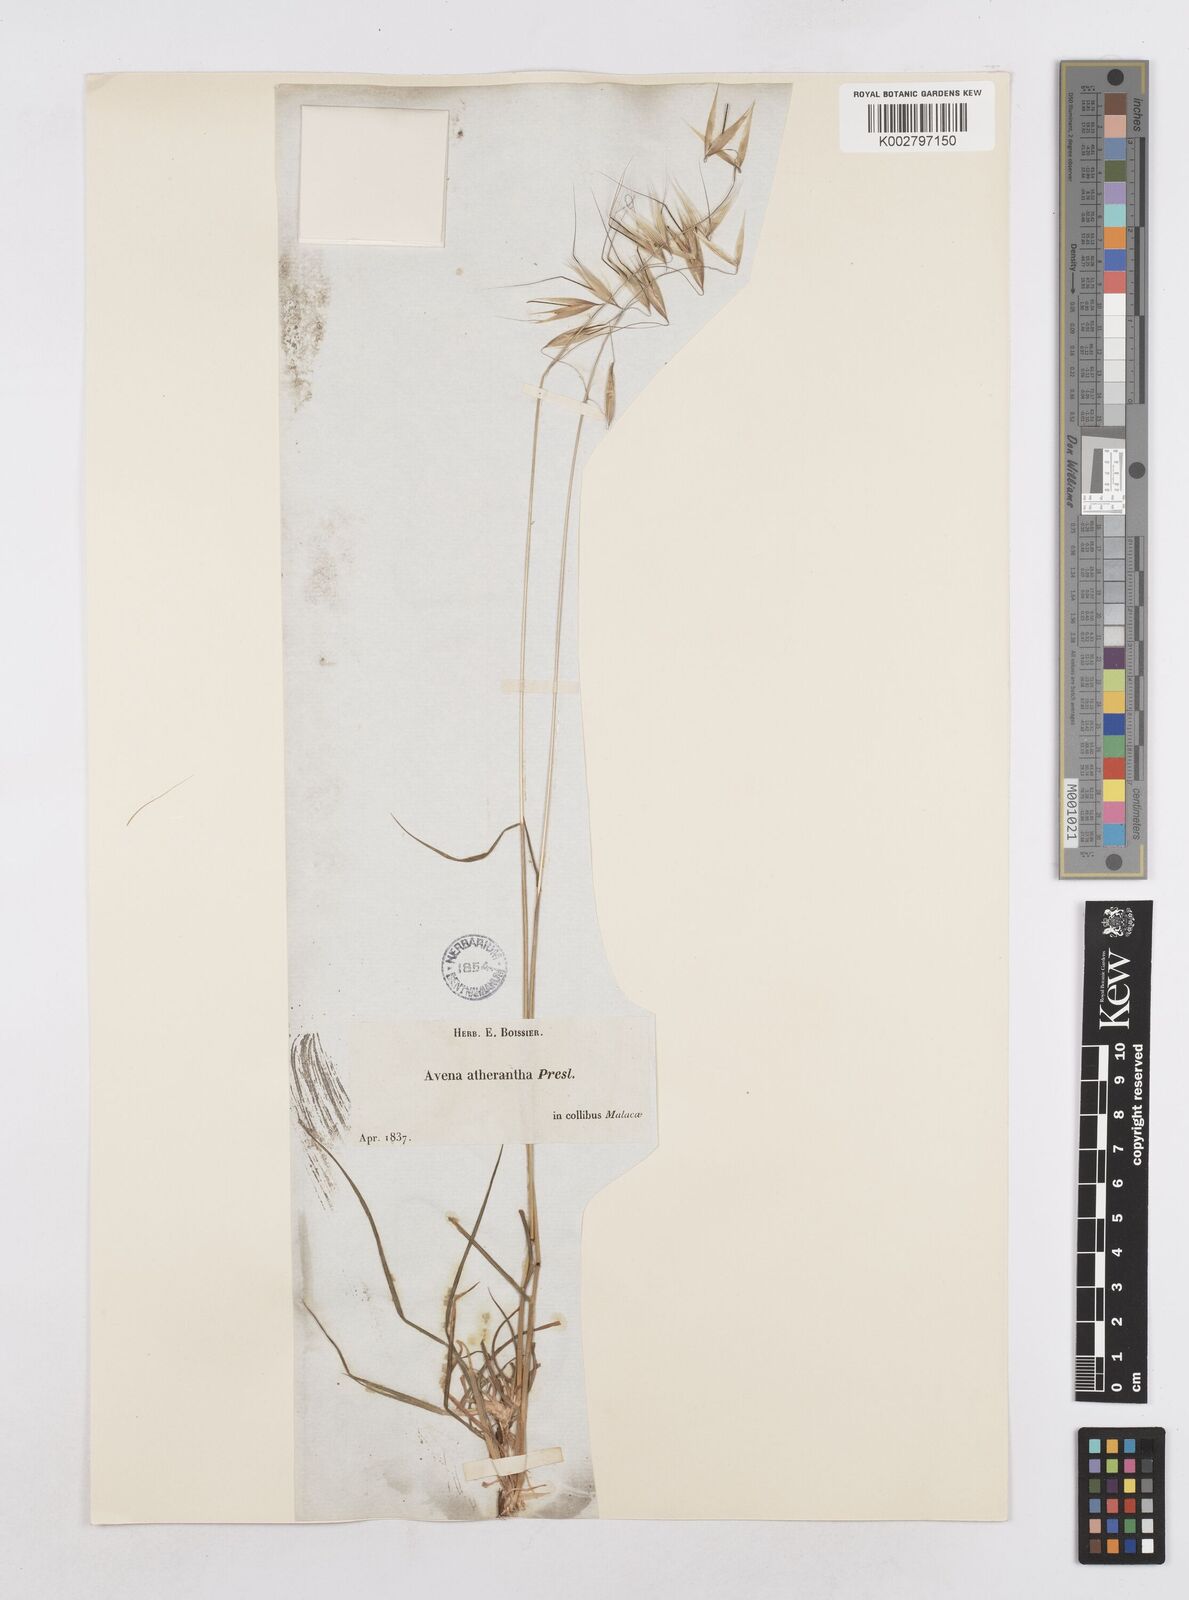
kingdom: Plantae
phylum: Tracheophyta
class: Liliopsida
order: Poales
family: Poaceae
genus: Avena
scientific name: Avena
